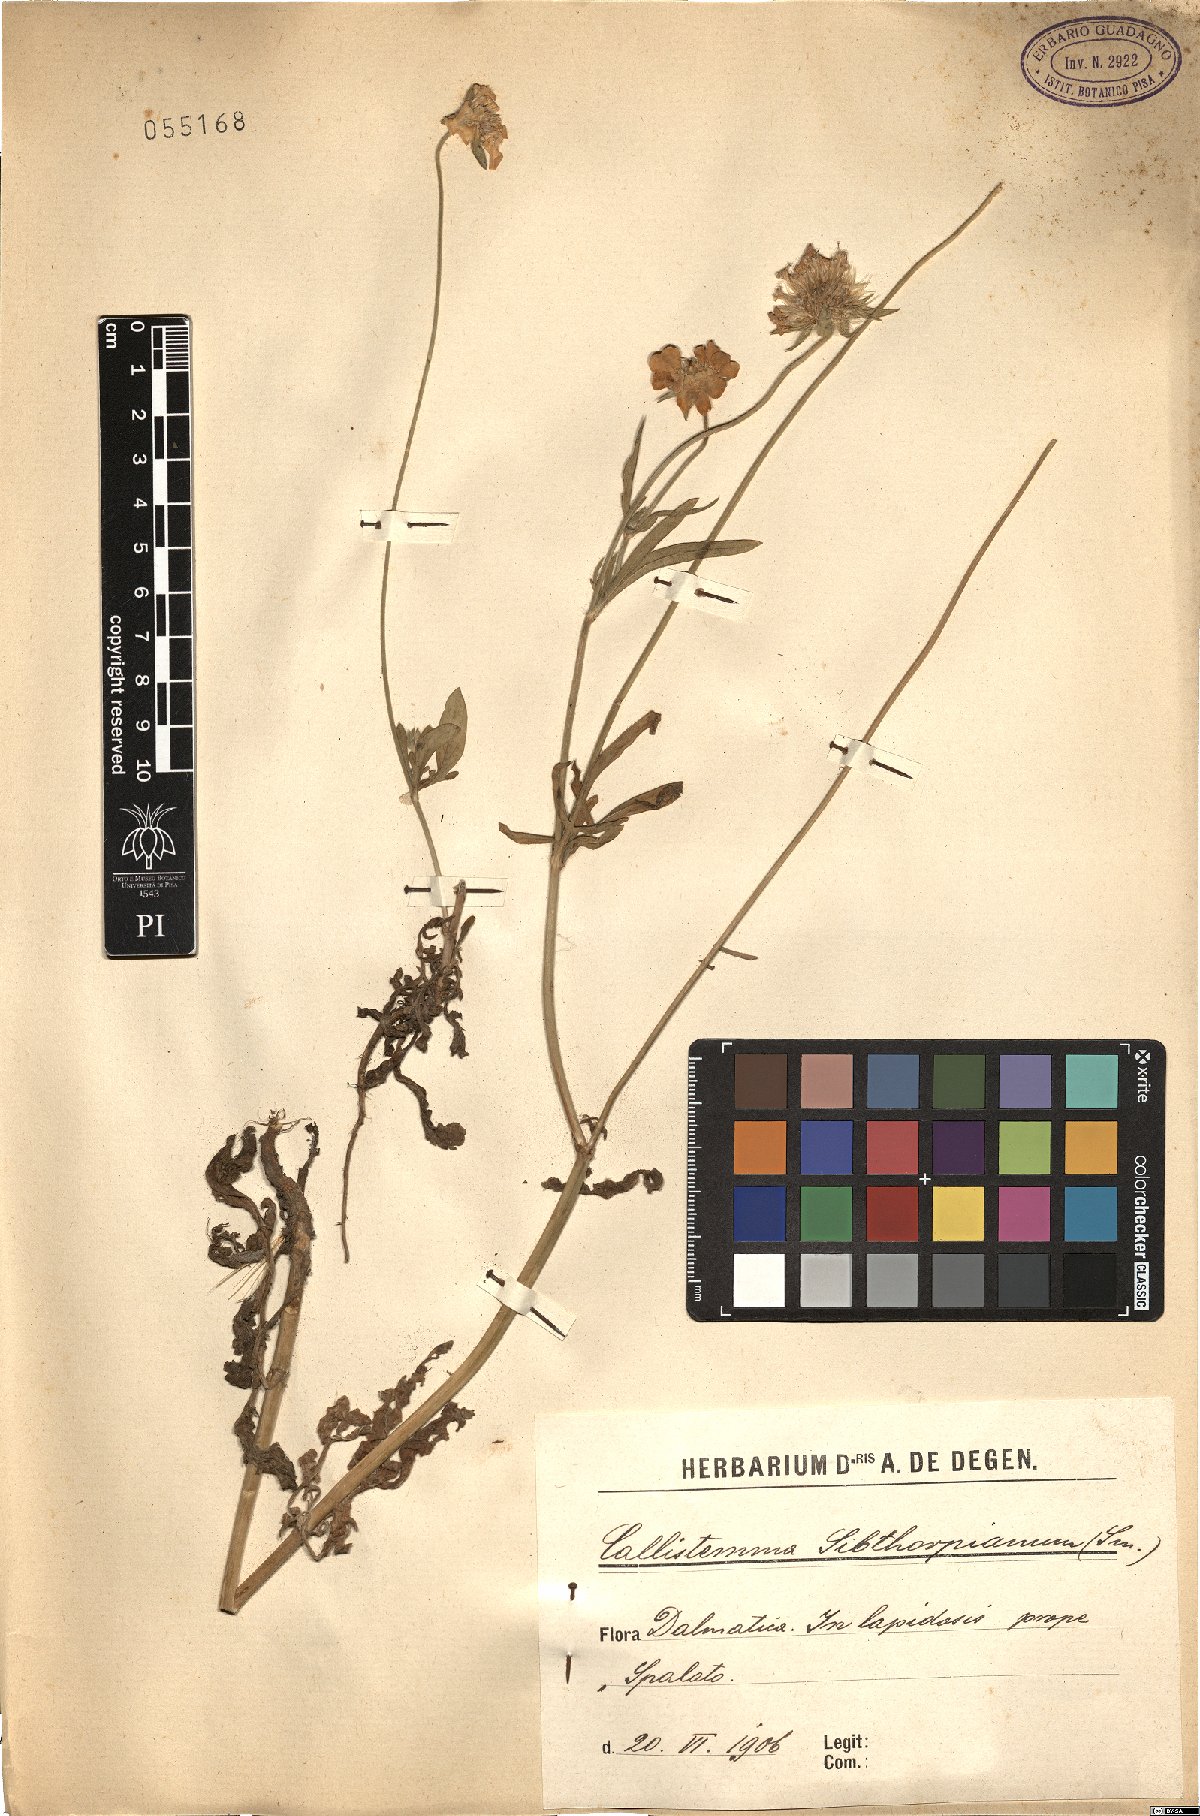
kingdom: Plantae
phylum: Tracheophyta
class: Magnoliopsida
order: Dipsacales
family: Caprifoliaceae
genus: Lomelosia
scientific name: Lomelosia palaestina
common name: Balkan pincushions
